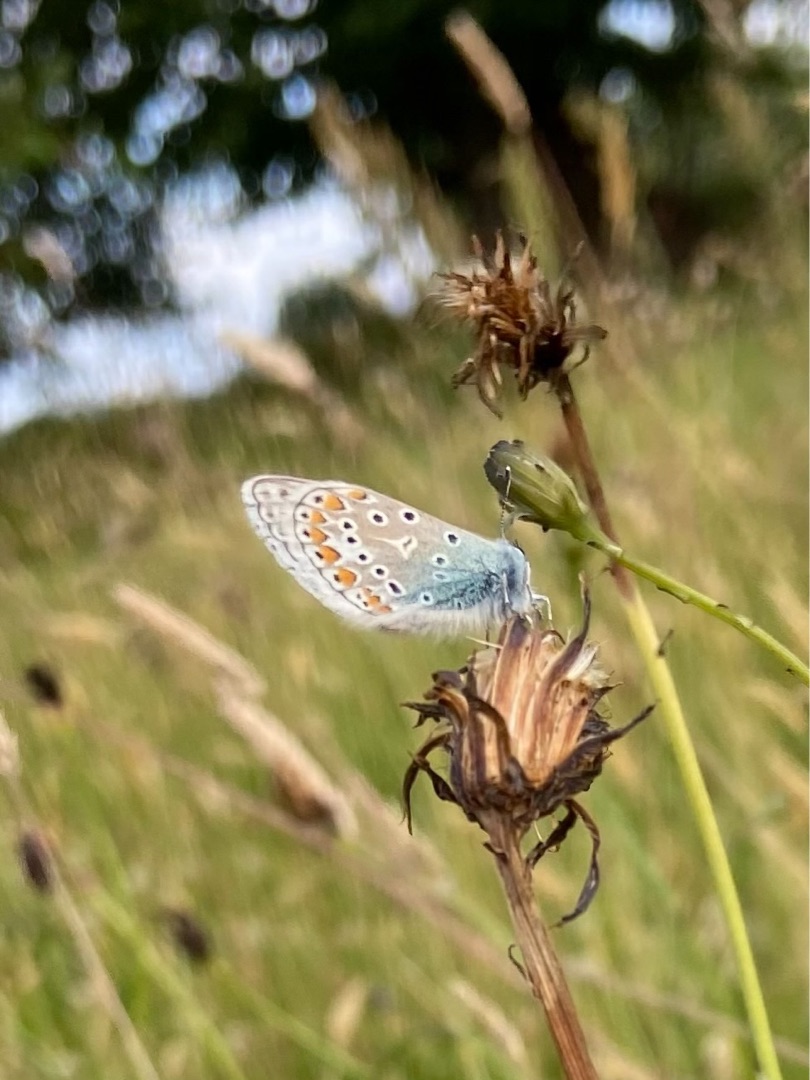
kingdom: Animalia
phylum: Arthropoda
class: Insecta
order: Lepidoptera
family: Lycaenidae
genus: Polyommatus
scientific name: Polyommatus icarus
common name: Almindelig blåfugl
